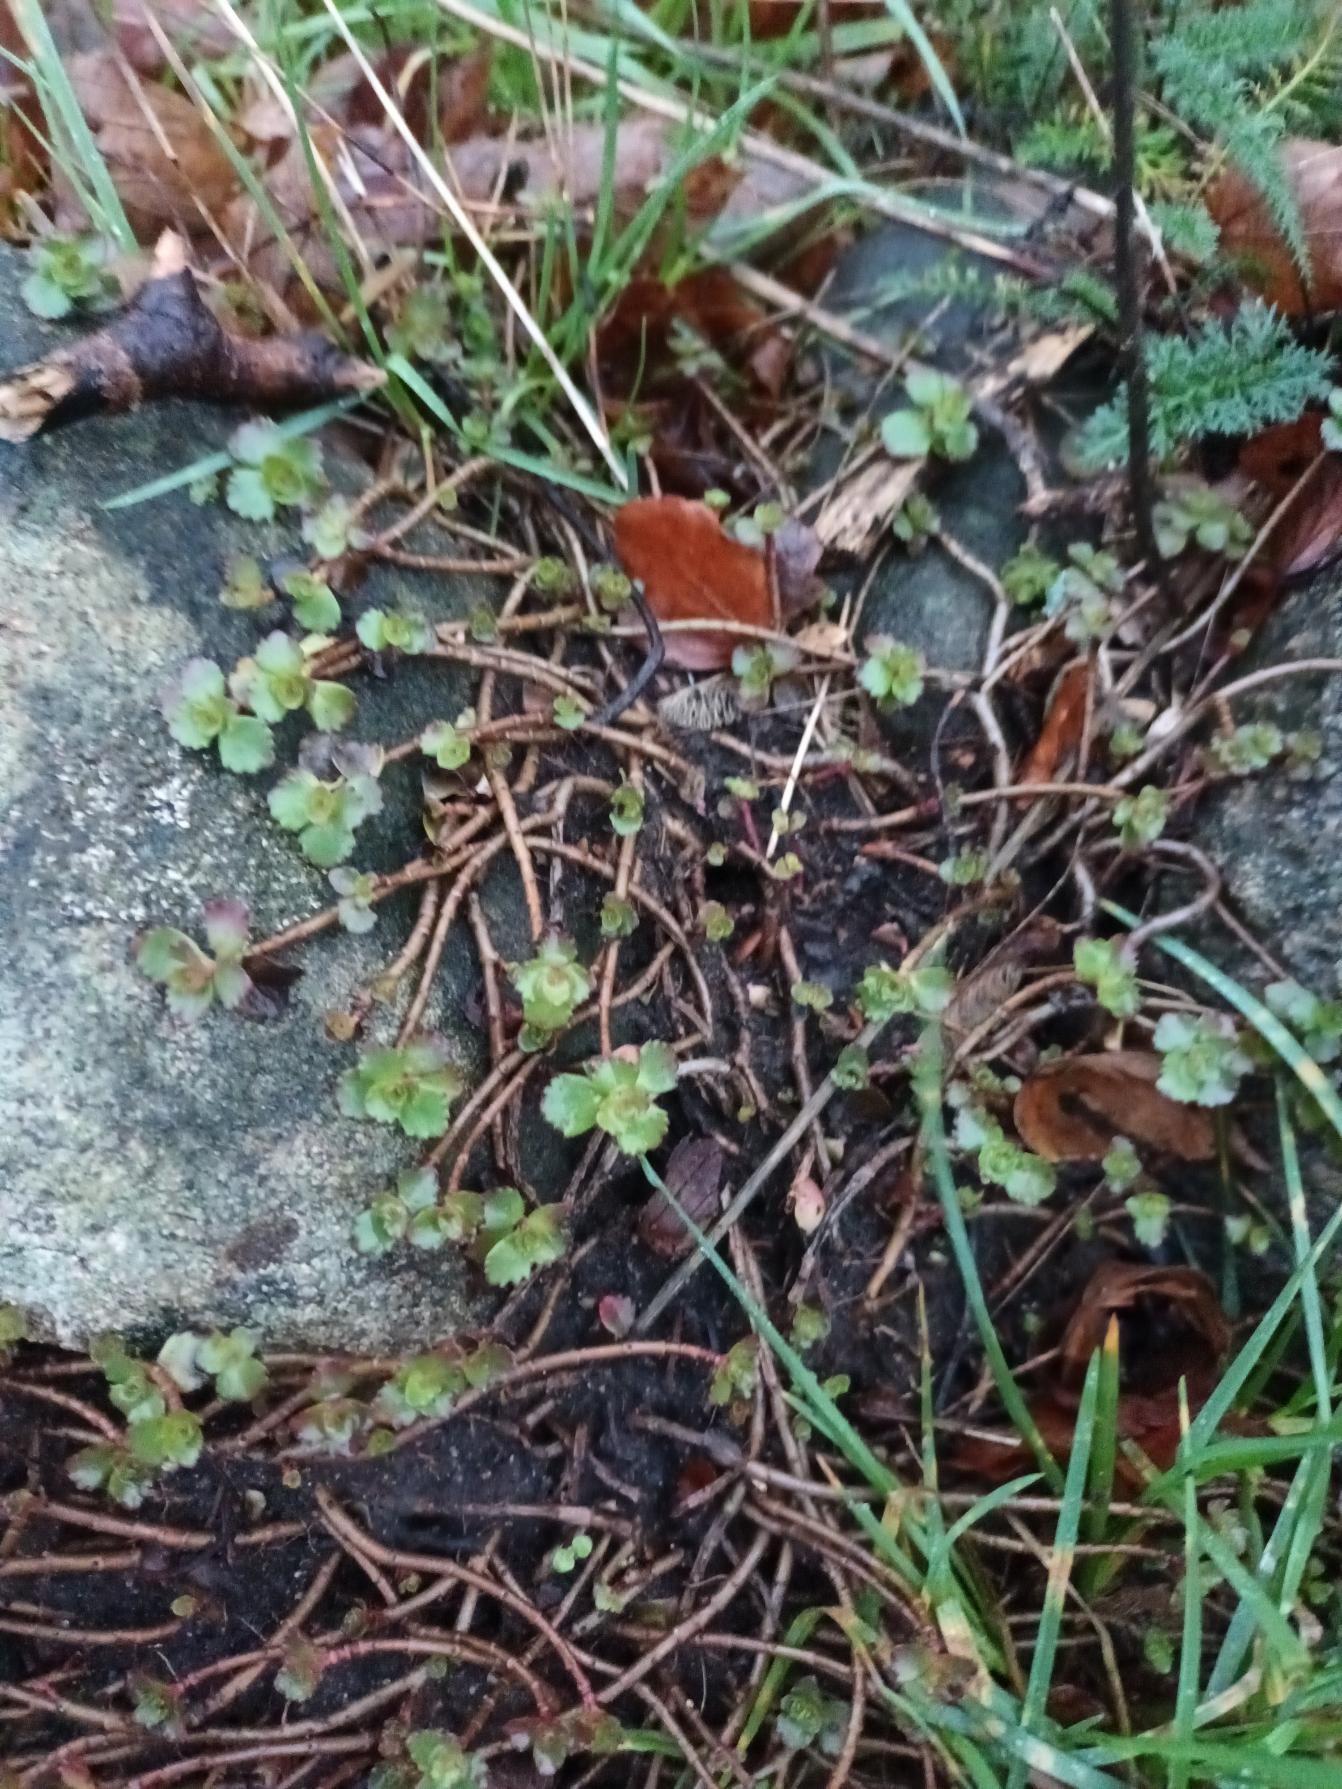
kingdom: Plantae
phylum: Tracheophyta
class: Magnoliopsida
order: Saxifragales
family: Crassulaceae
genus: Phedimus
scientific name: Phedimus spurius
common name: Rød stenurt
